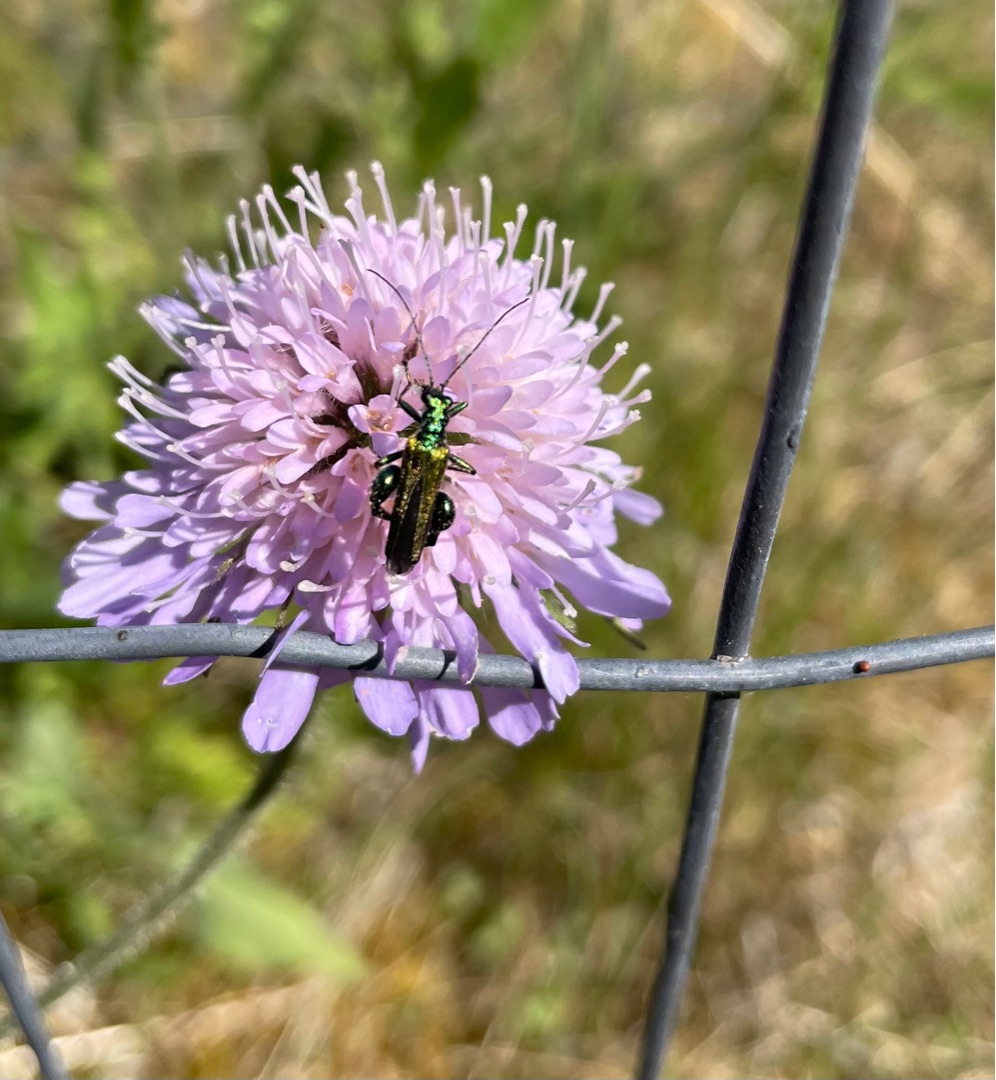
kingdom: Animalia
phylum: Arthropoda
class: Insecta
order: Coleoptera
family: Oedemeridae
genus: Oedemera
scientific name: Oedemera nobilis
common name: Tyklårssolbille
